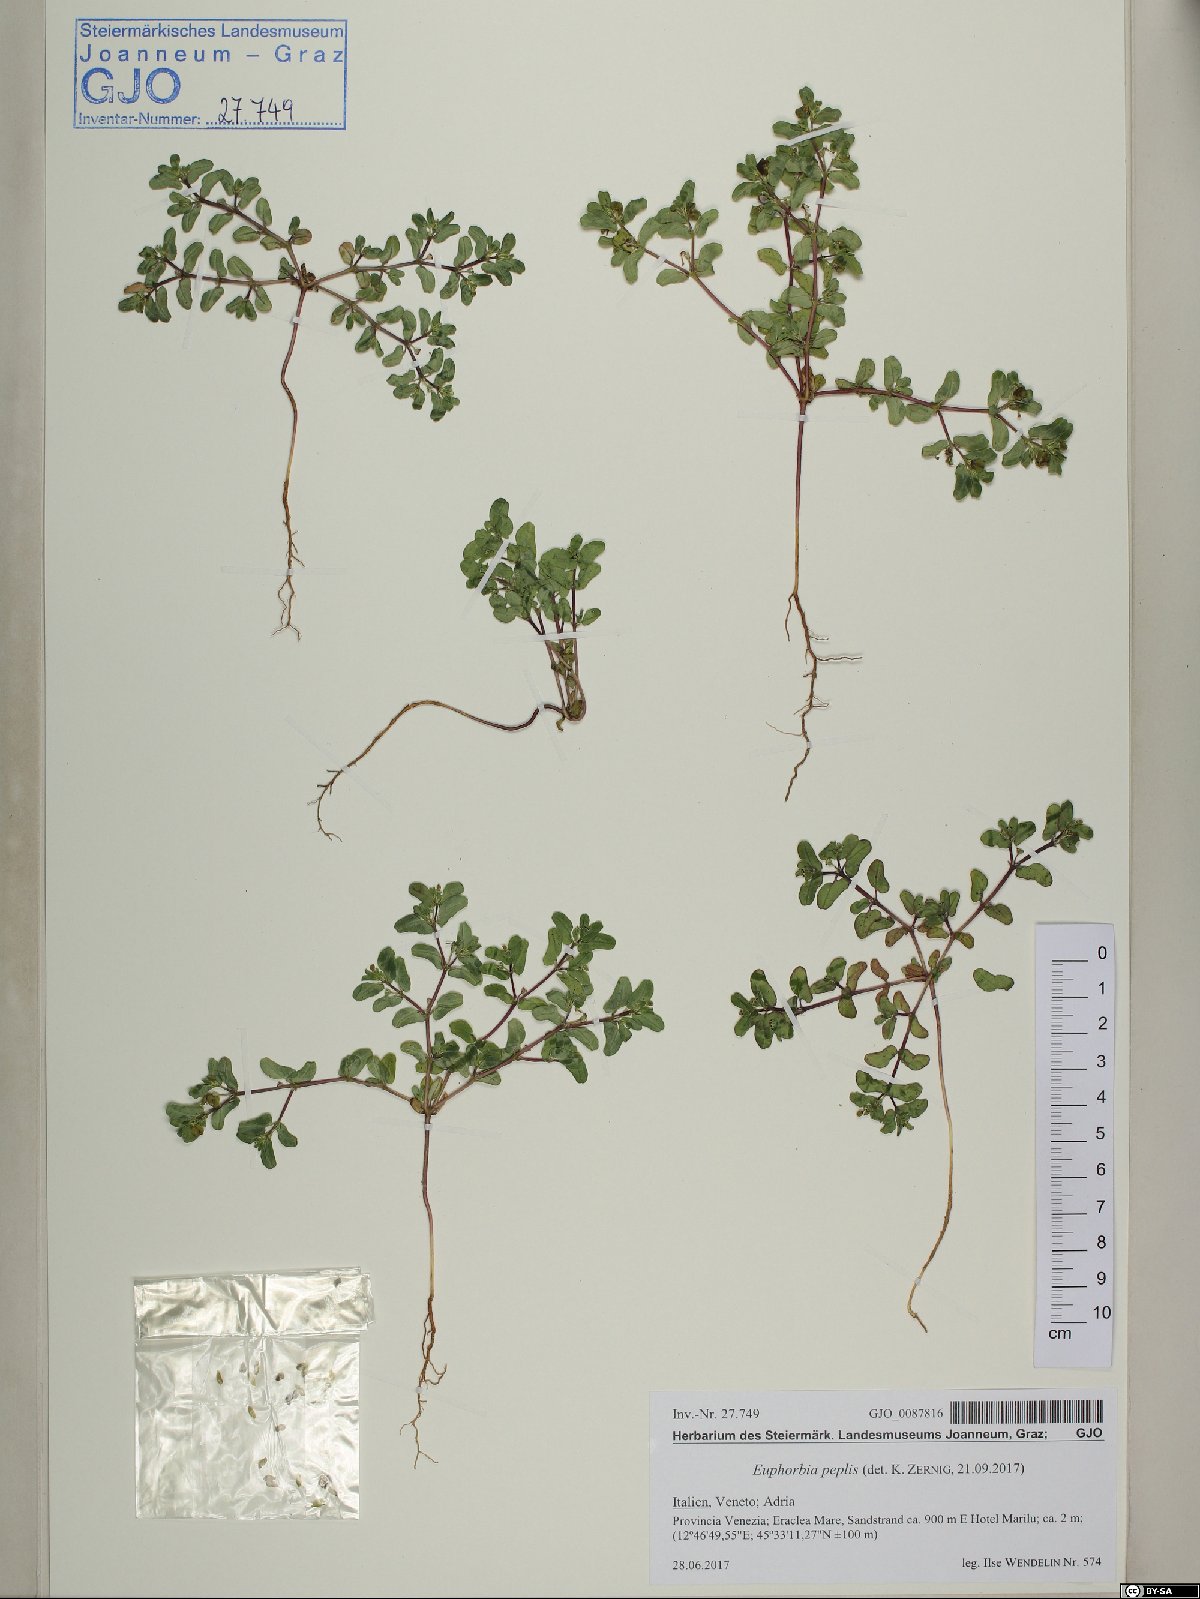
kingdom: Plantae
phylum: Tracheophyta
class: Magnoliopsida
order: Malpighiales
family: Euphorbiaceae
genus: Euphorbia
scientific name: Euphorbia peplis
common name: Purple spurge
